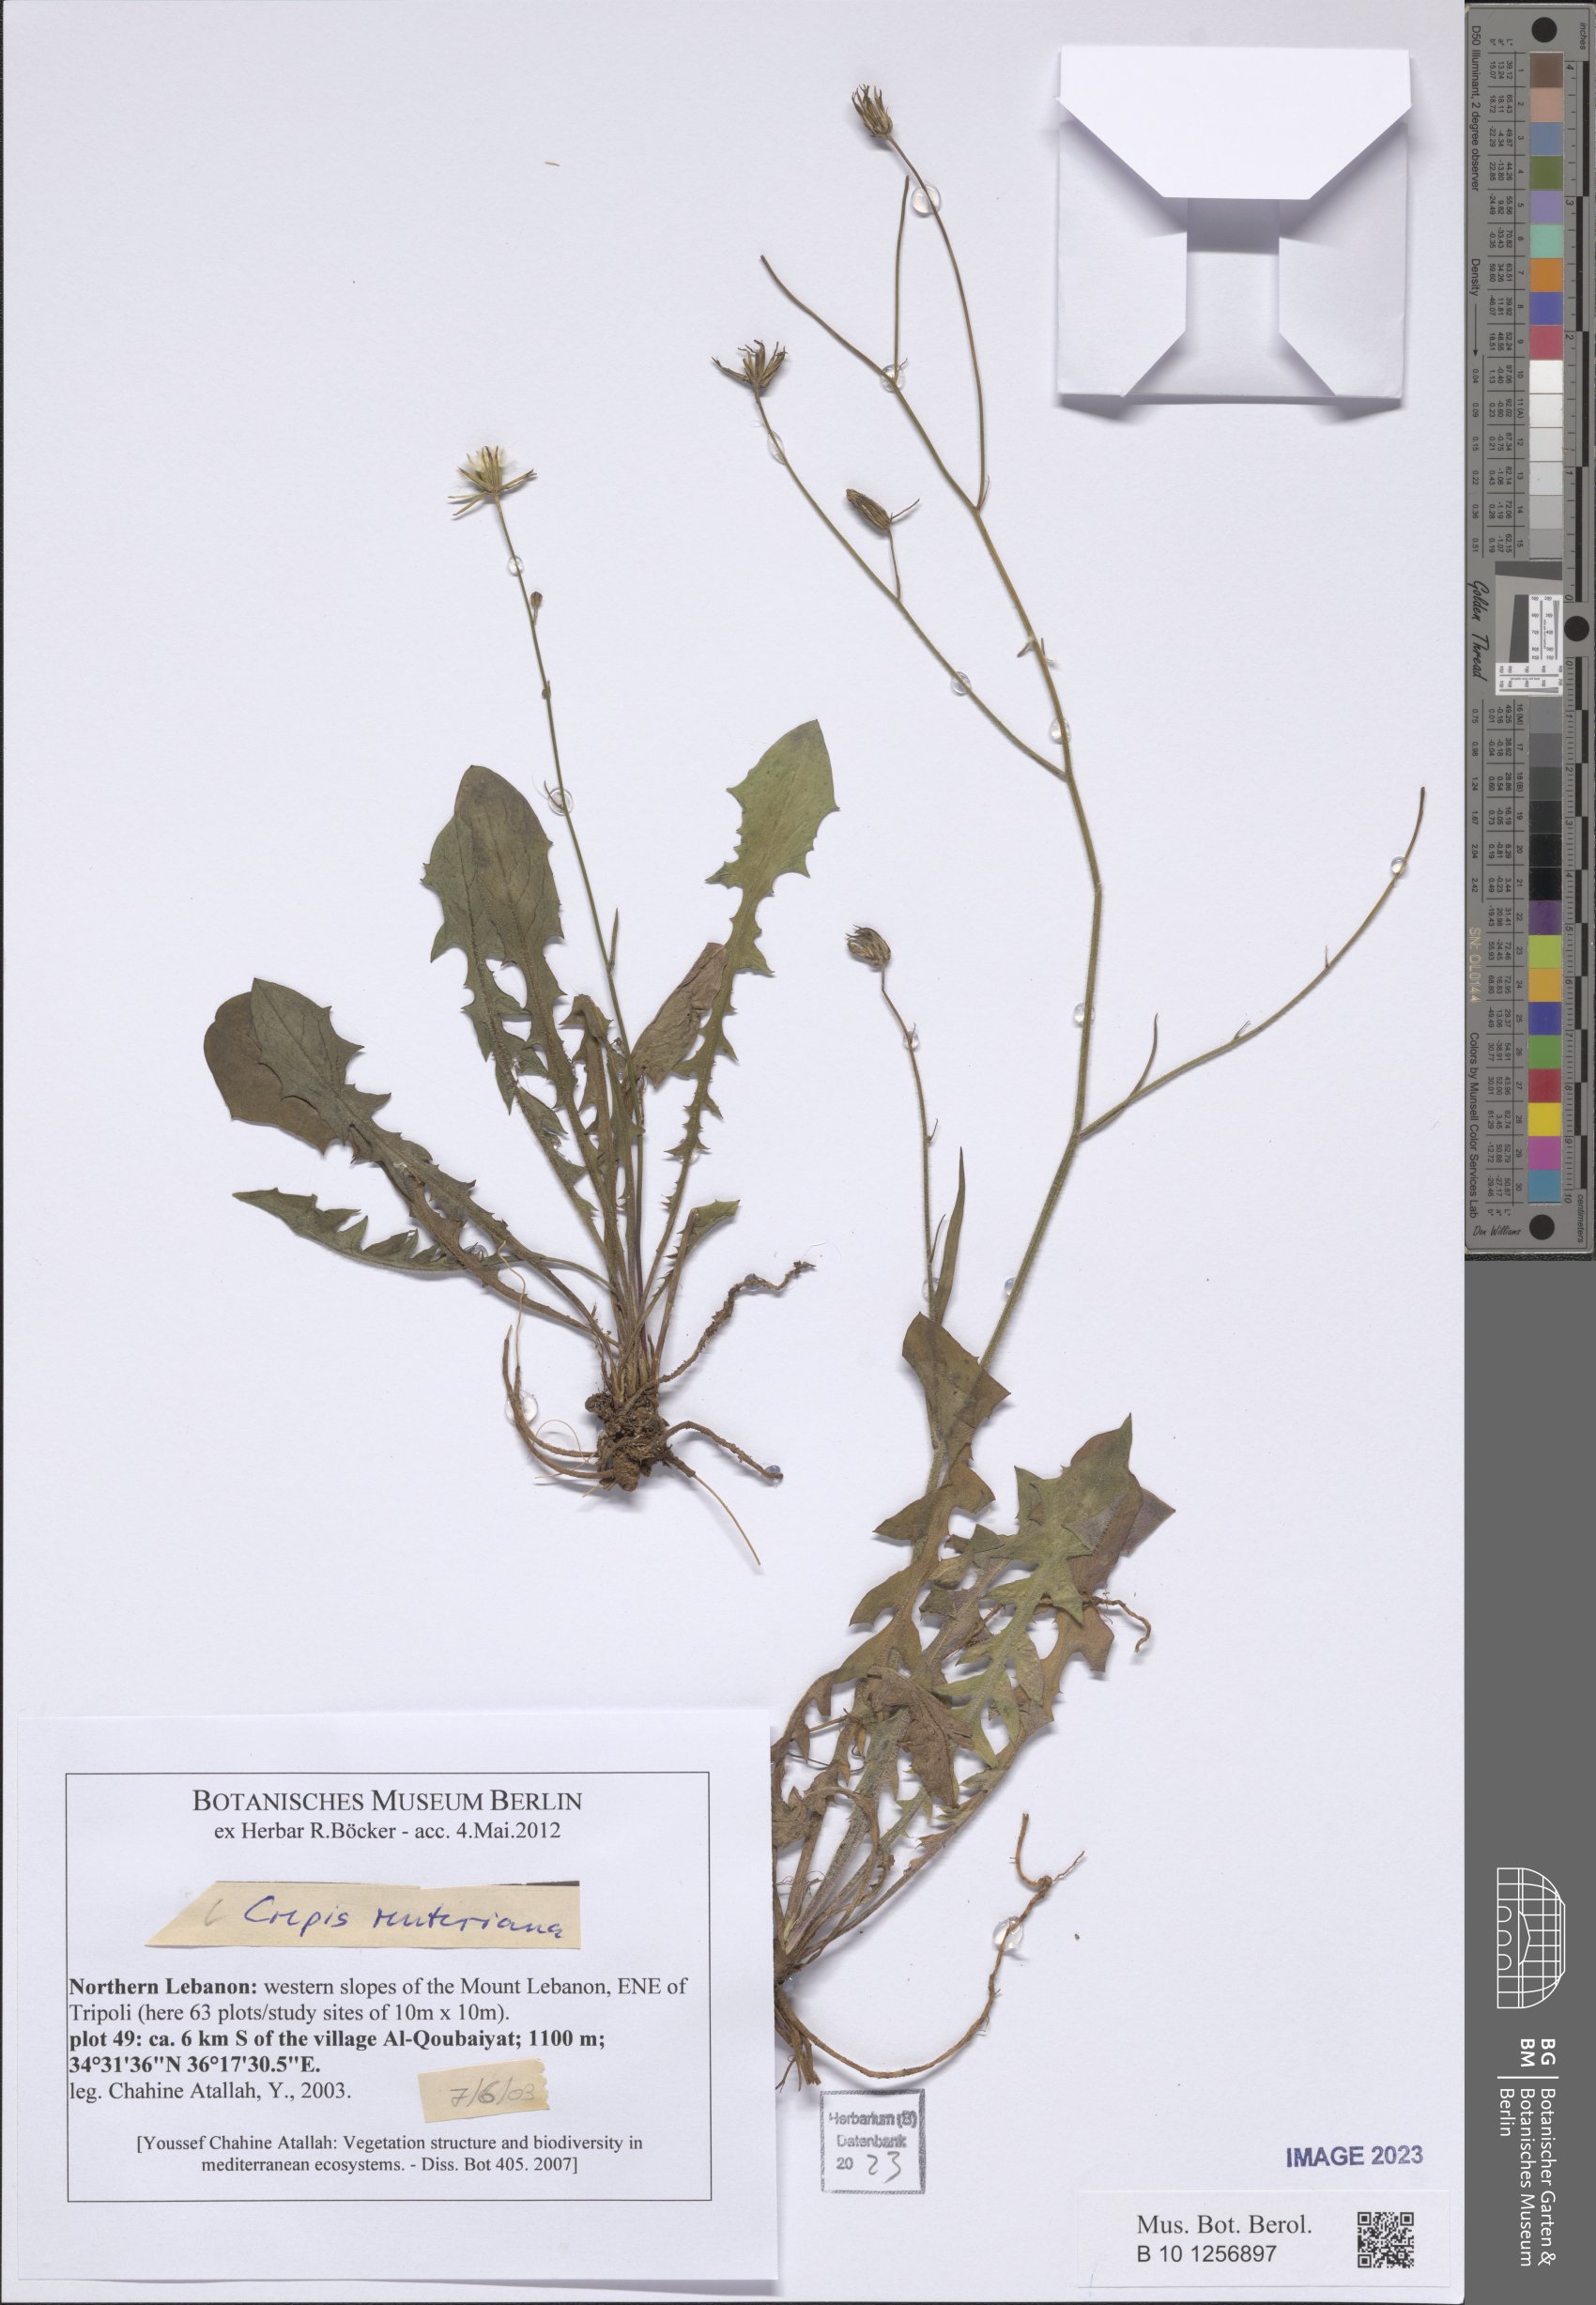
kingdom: Plantae
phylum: Tracheophyta
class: Magnoliopsida
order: Asterales
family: Asteraceae
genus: Crepis
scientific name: Crepis reuteriana
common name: Hawk's-beard
